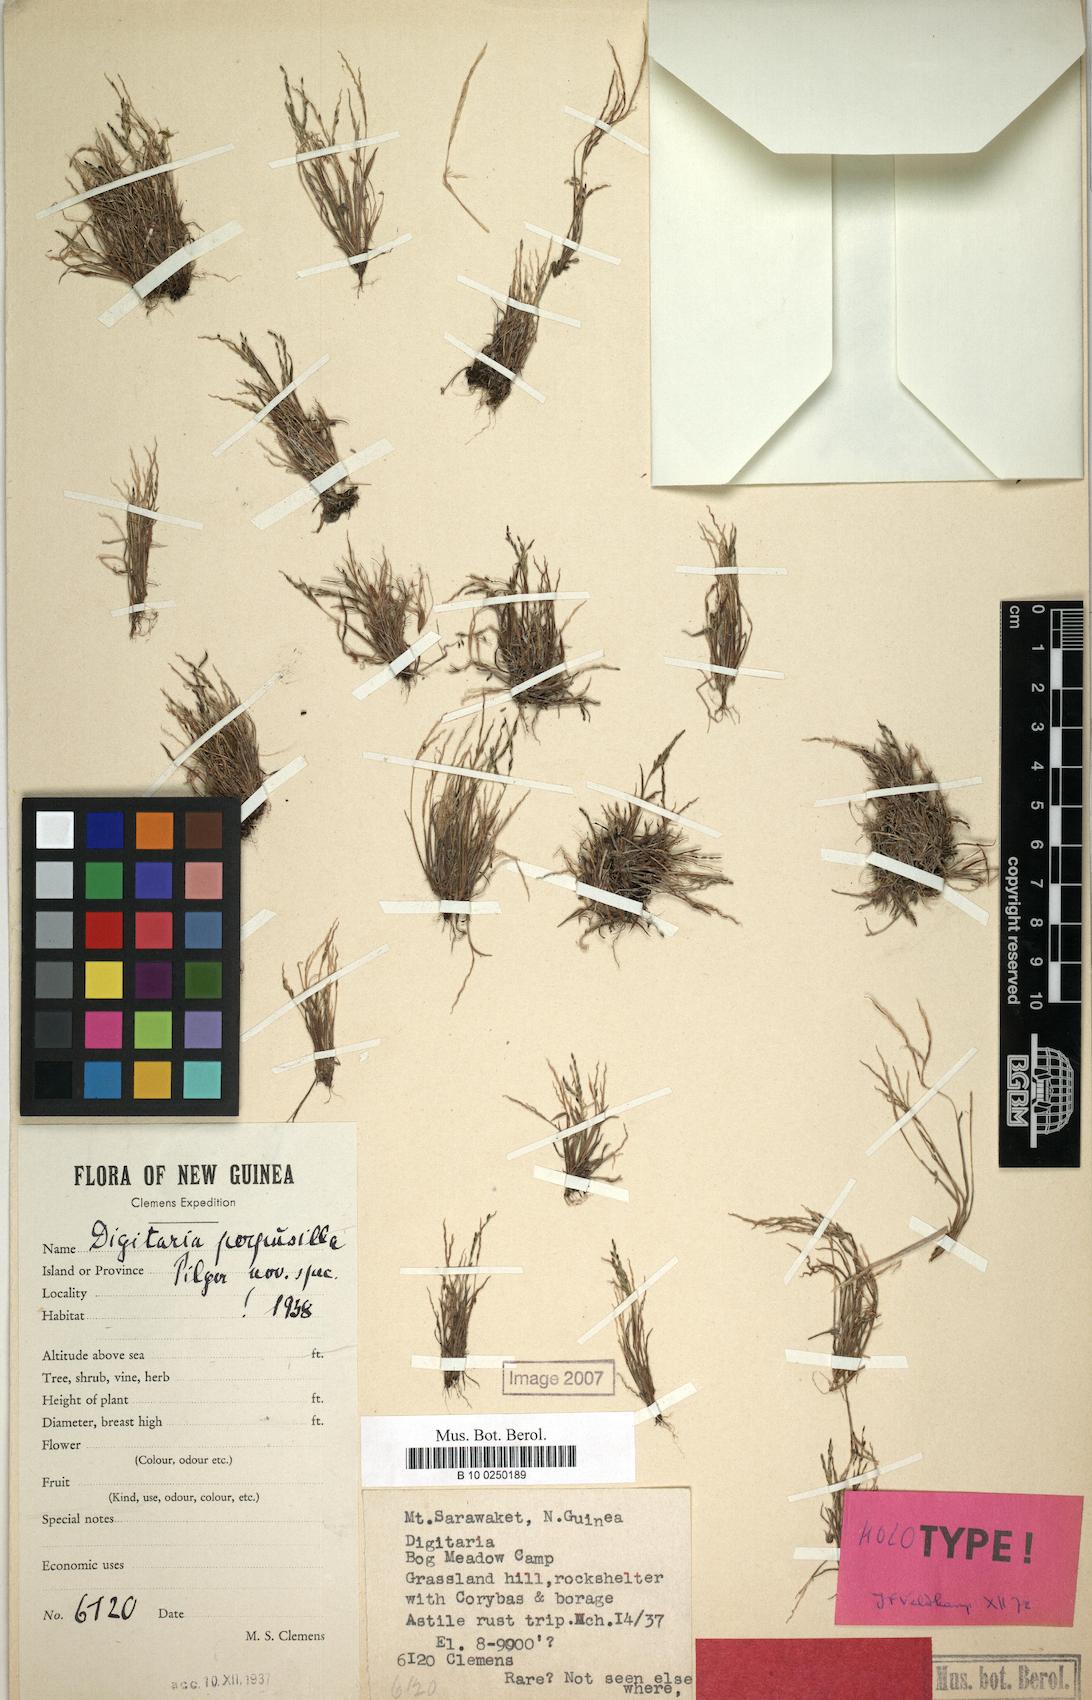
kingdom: Plantae
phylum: Tracheophyta
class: Liliopsida
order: Poales
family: Poaceae
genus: Digitaria
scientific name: Digitaria perpusilla
